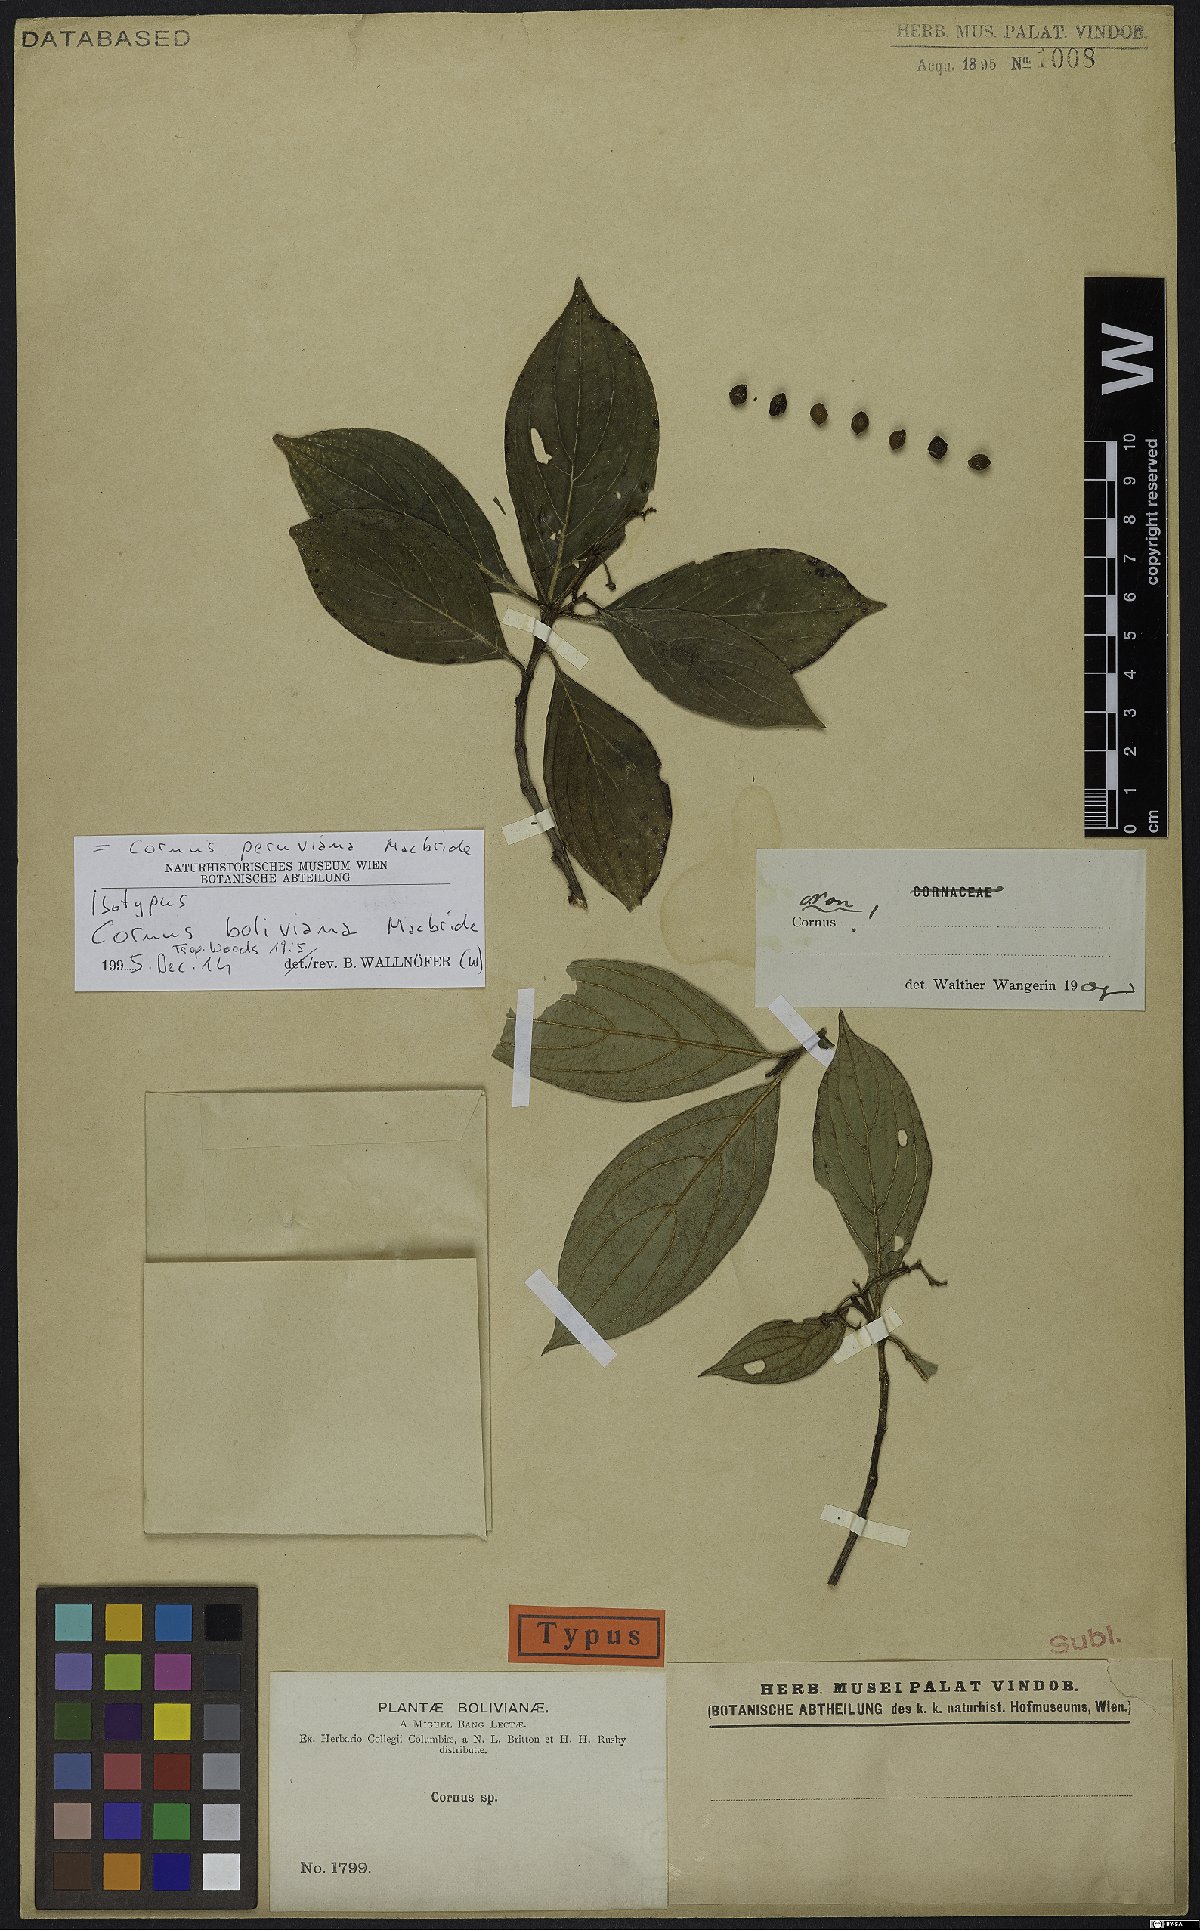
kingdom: Plantae
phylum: Tracheophyta
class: Magnoliopsida
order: Cornales
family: Cornaceae
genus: Cornus
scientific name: Cornus peruviana
